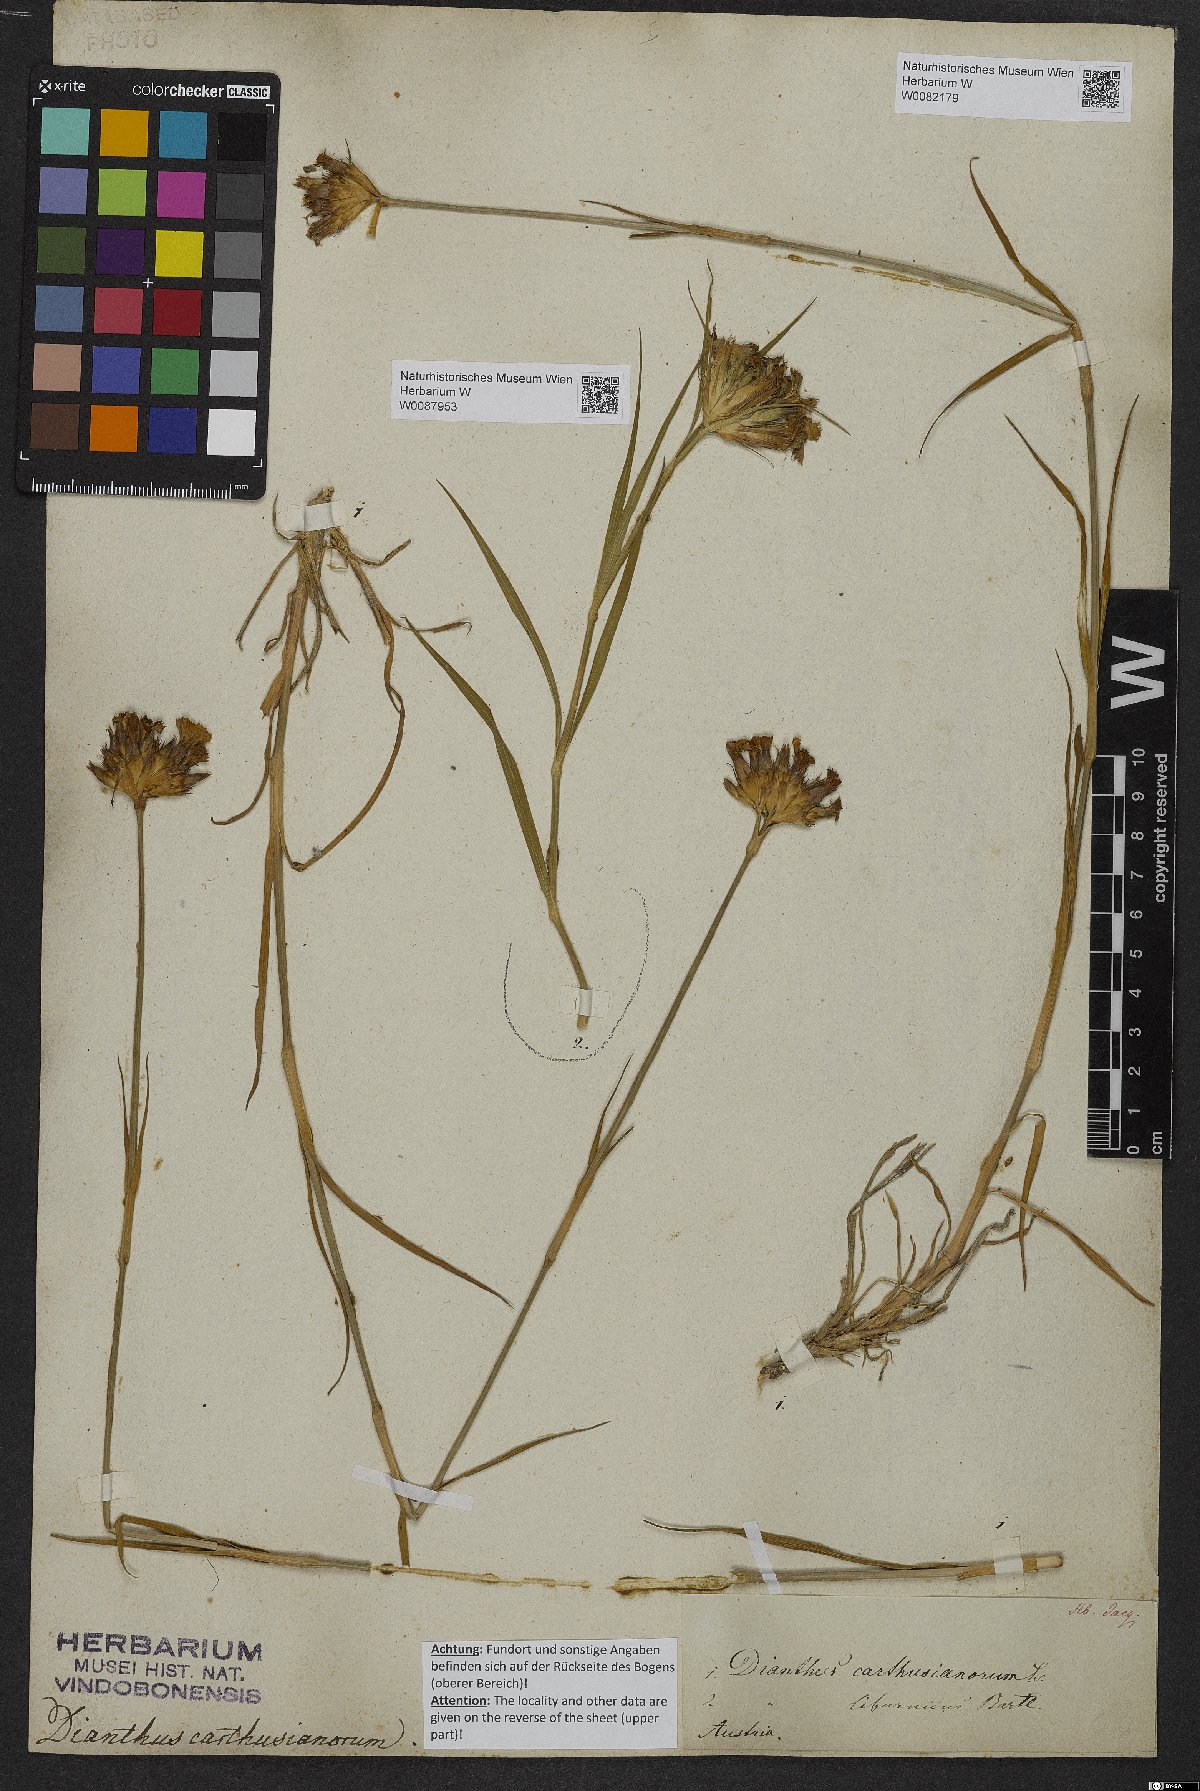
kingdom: Plantae
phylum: Tracheophyta
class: Magnoliopsida
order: Caryophyllales
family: Caryophyllaceae
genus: Dianthus
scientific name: Dianthus carthusianorum
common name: Carthusian pink
